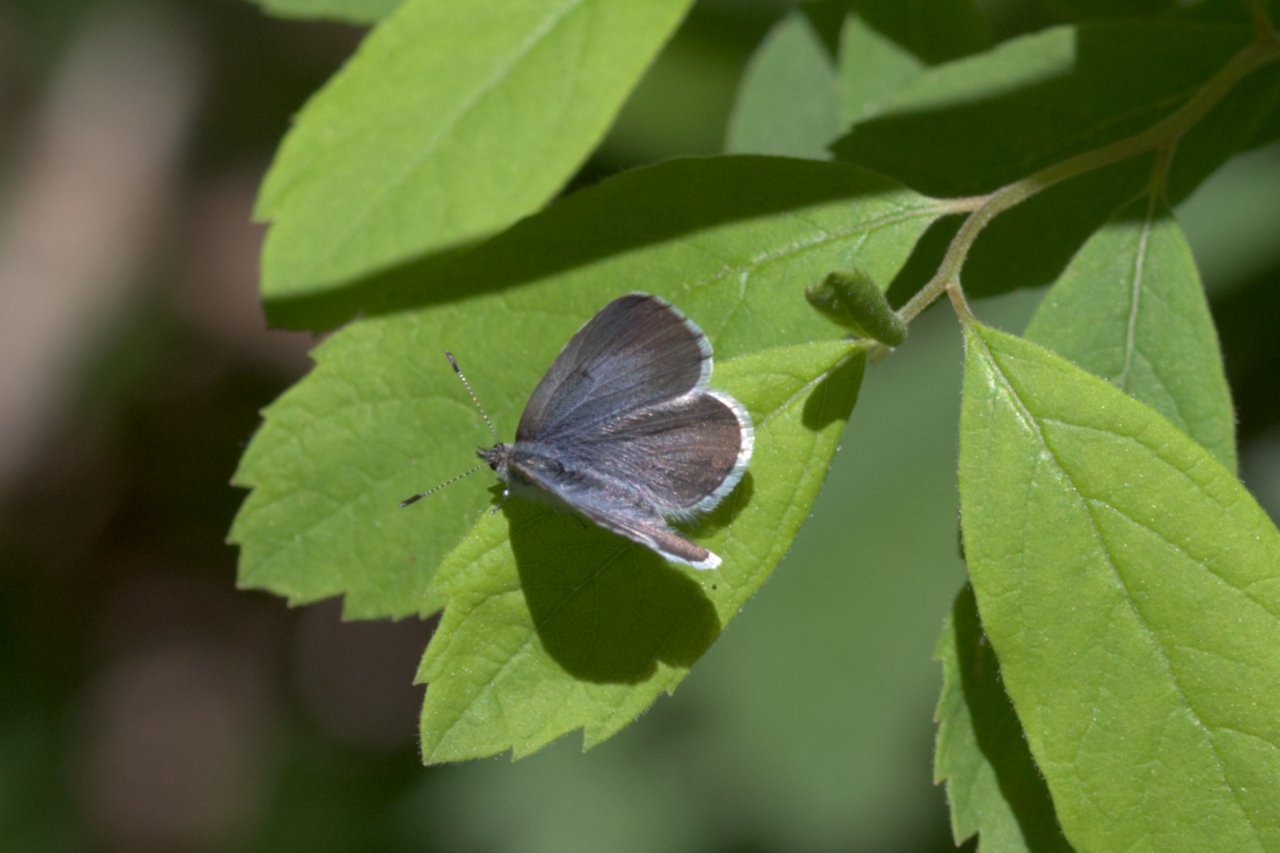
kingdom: Animalia
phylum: Arthropoda
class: Insecta
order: Lepidoptera
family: Lycaenidae
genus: Celastrina
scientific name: Celastrina ladon
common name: Echo Azure
